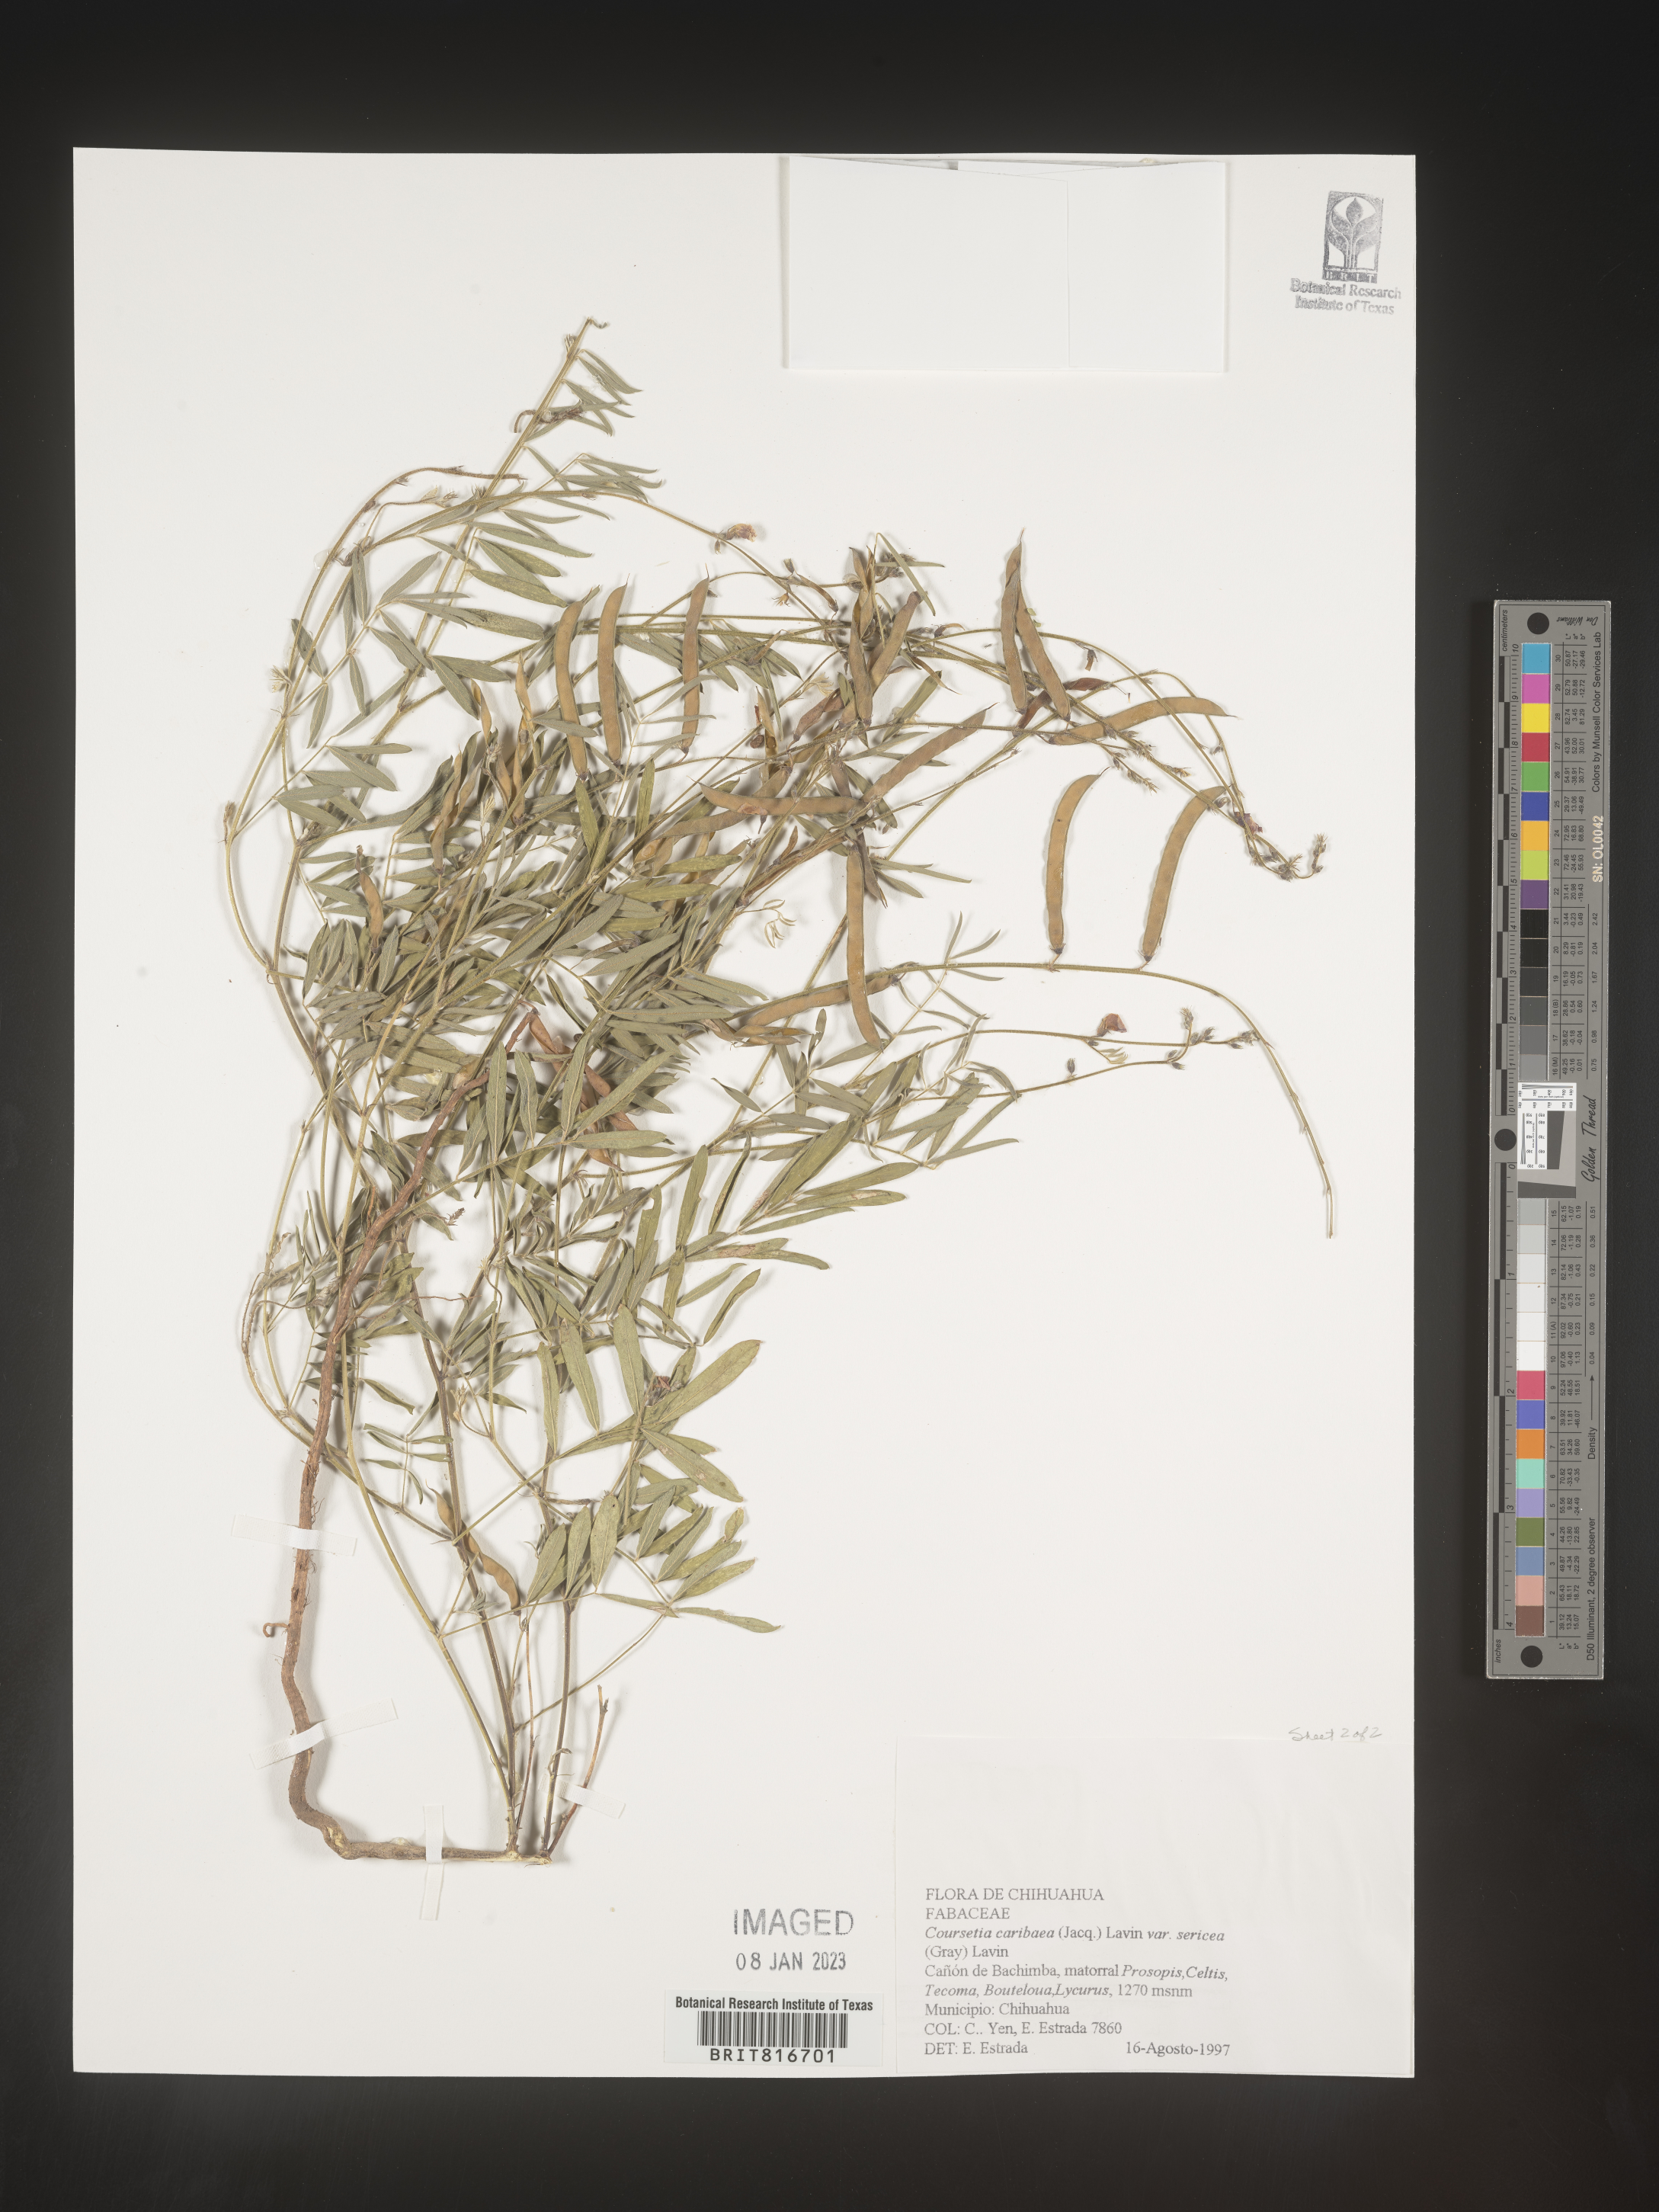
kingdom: Plantae
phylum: Tracheophyta
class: Magnoliopsida
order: Fabales
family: Fabaceae
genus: Coursetia
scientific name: Coursetia
